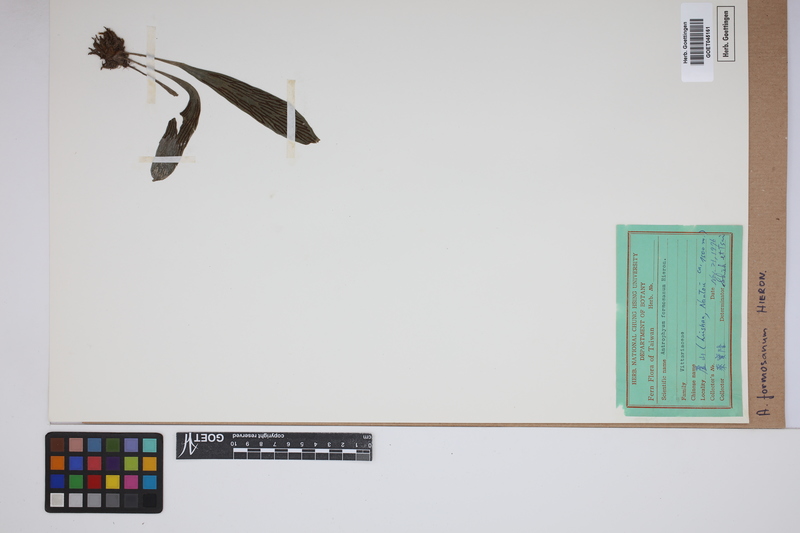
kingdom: Plantae
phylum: Tracheophyta
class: Polypodiopsida
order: Polypodiales
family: Pteridaceae
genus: Antrophyum
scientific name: Antrophyum formosanum
